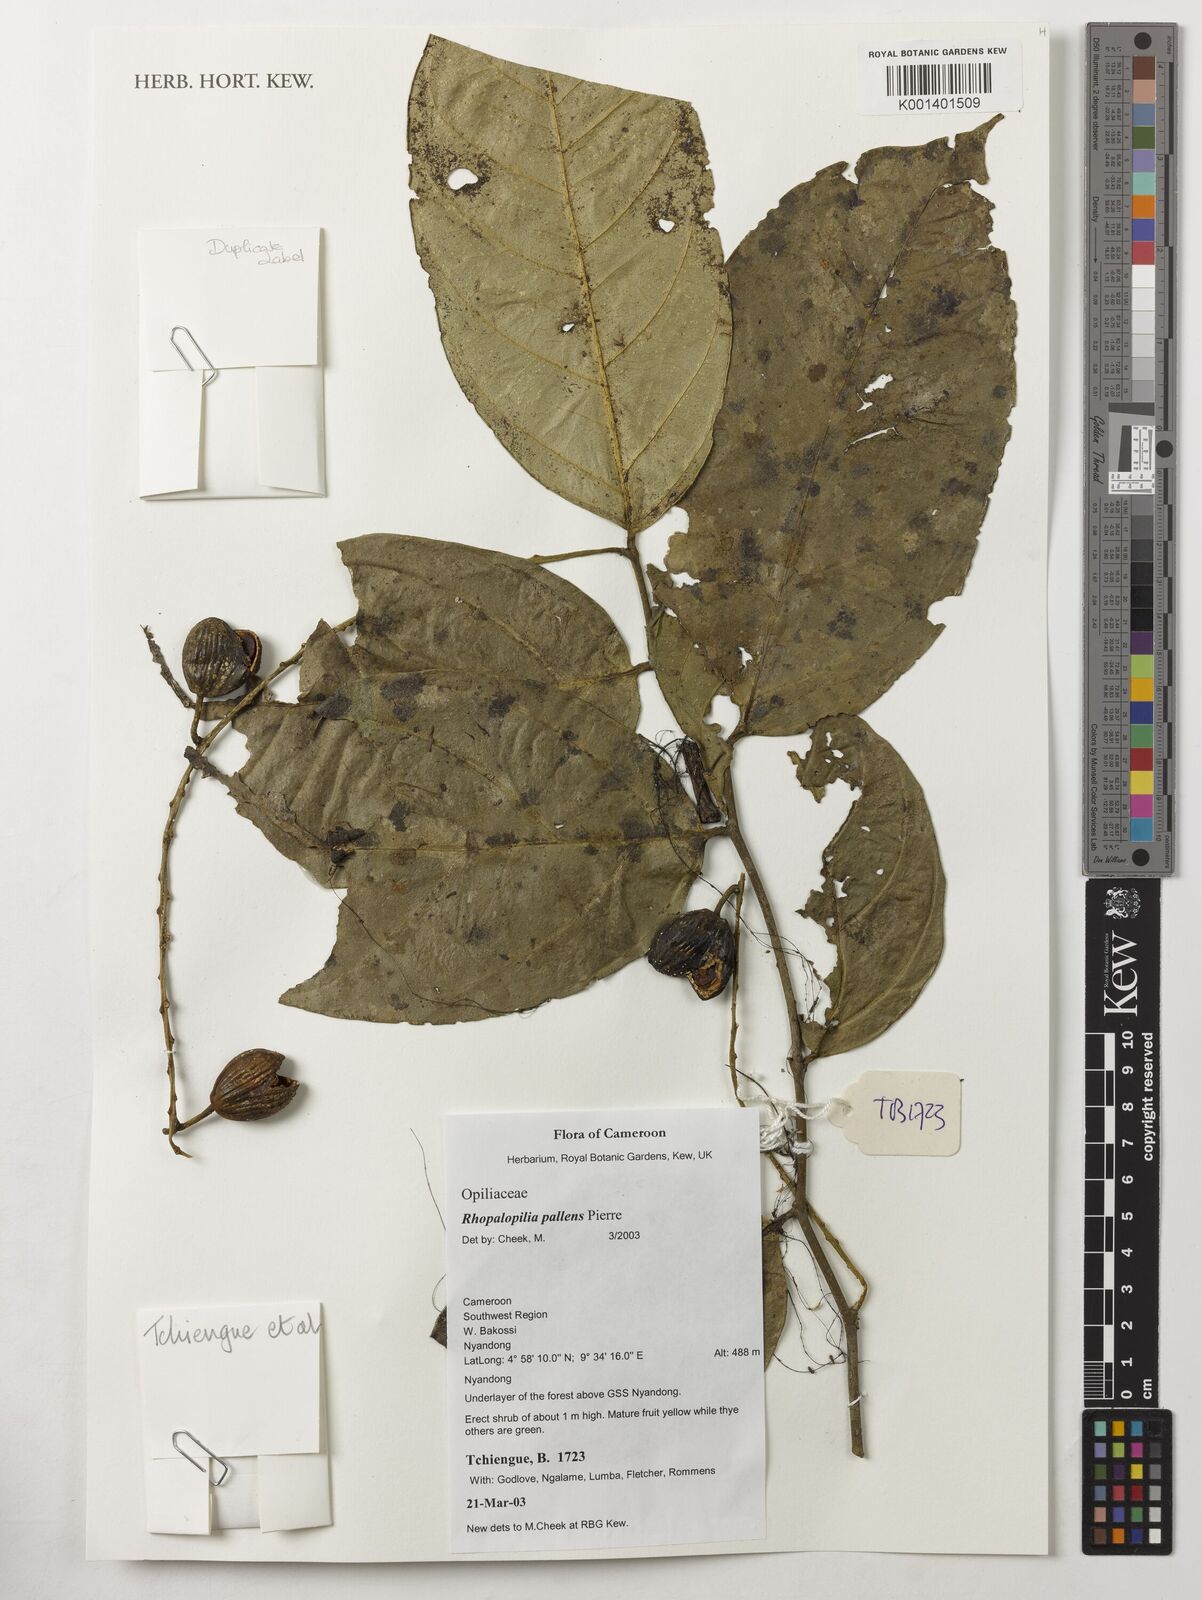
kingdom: Plantae
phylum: Tracheophyta
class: Magnoliopsida
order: Santalales
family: Opiliaceae
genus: Rhopalopilia
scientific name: Rhopalopilia pallens
